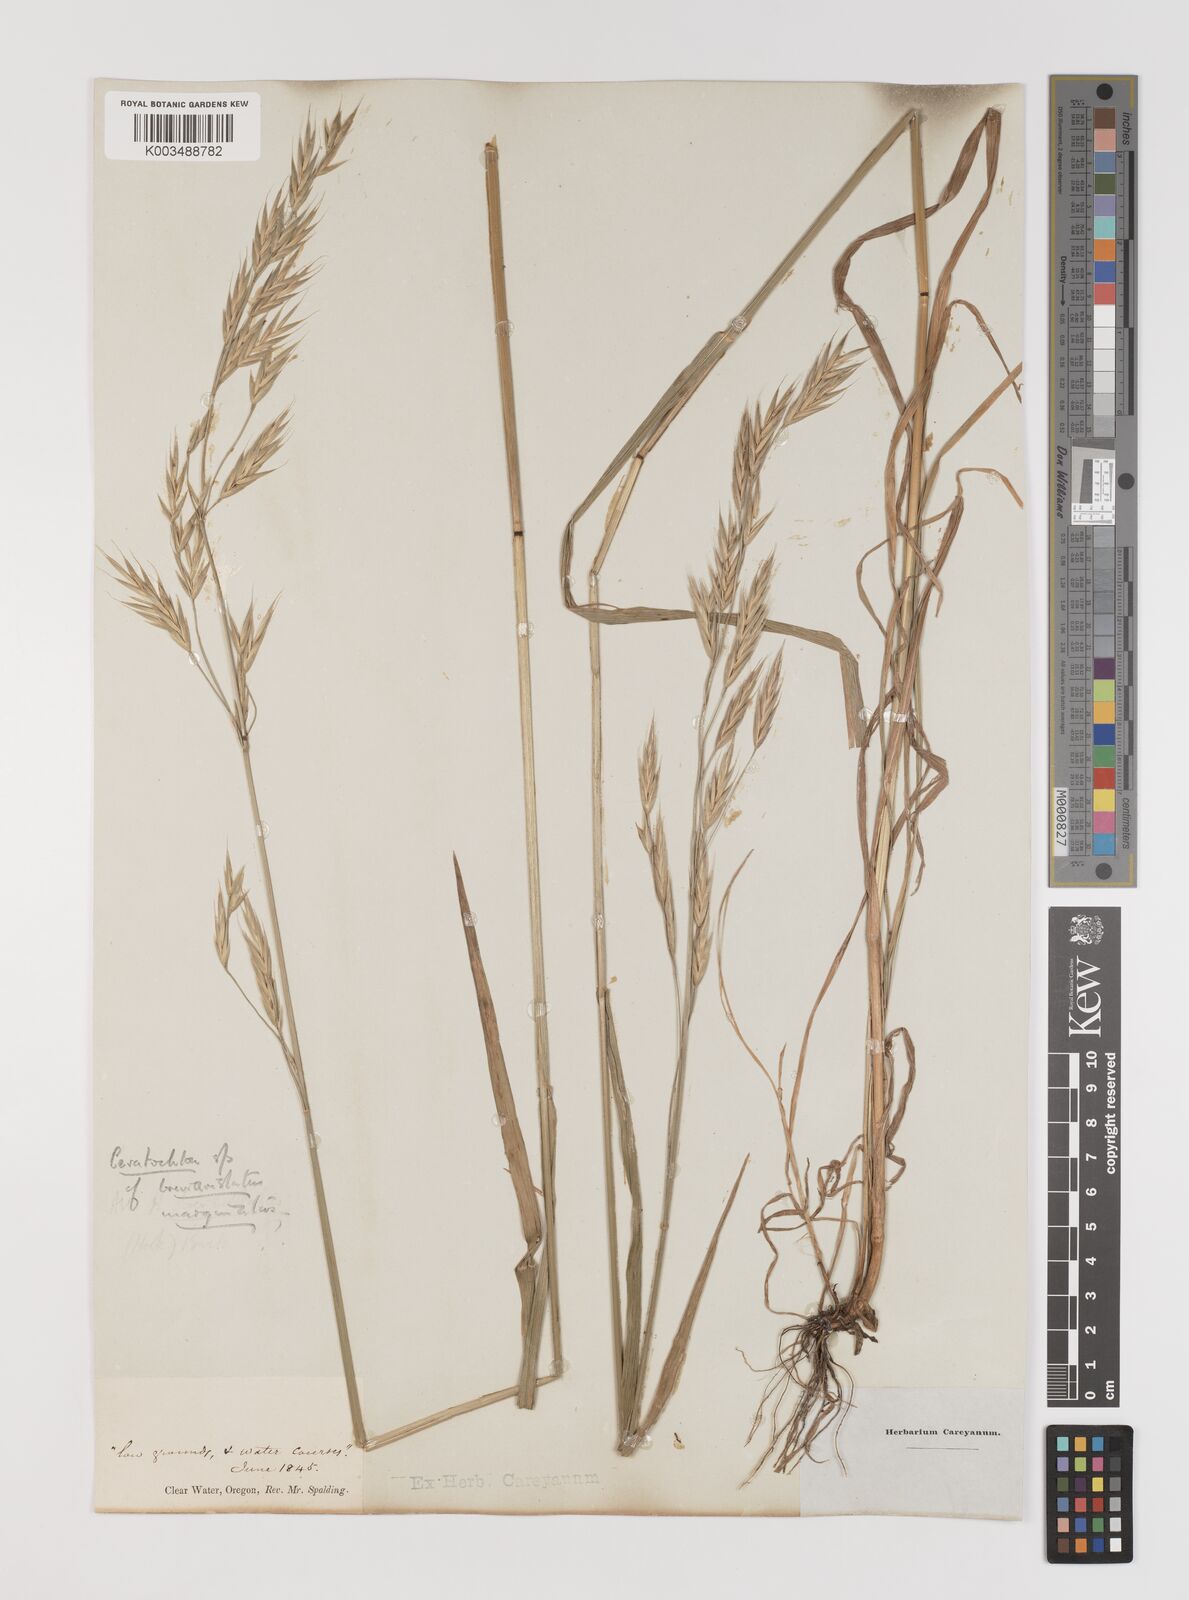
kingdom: Plantae
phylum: Tracheophyta
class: Liliopsida
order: Poales
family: Poaceae
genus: Bromus
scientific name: Bromus
